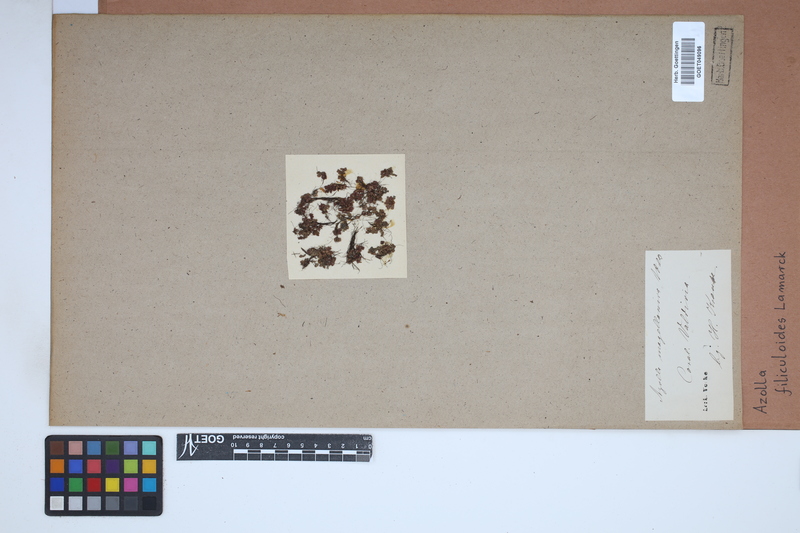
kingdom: Plantae
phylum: Tracheophyta
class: Polypodiopsida
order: Salviniales
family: Salviniaceae
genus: Azolla
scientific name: Azolla filiculoides
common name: Water fern
